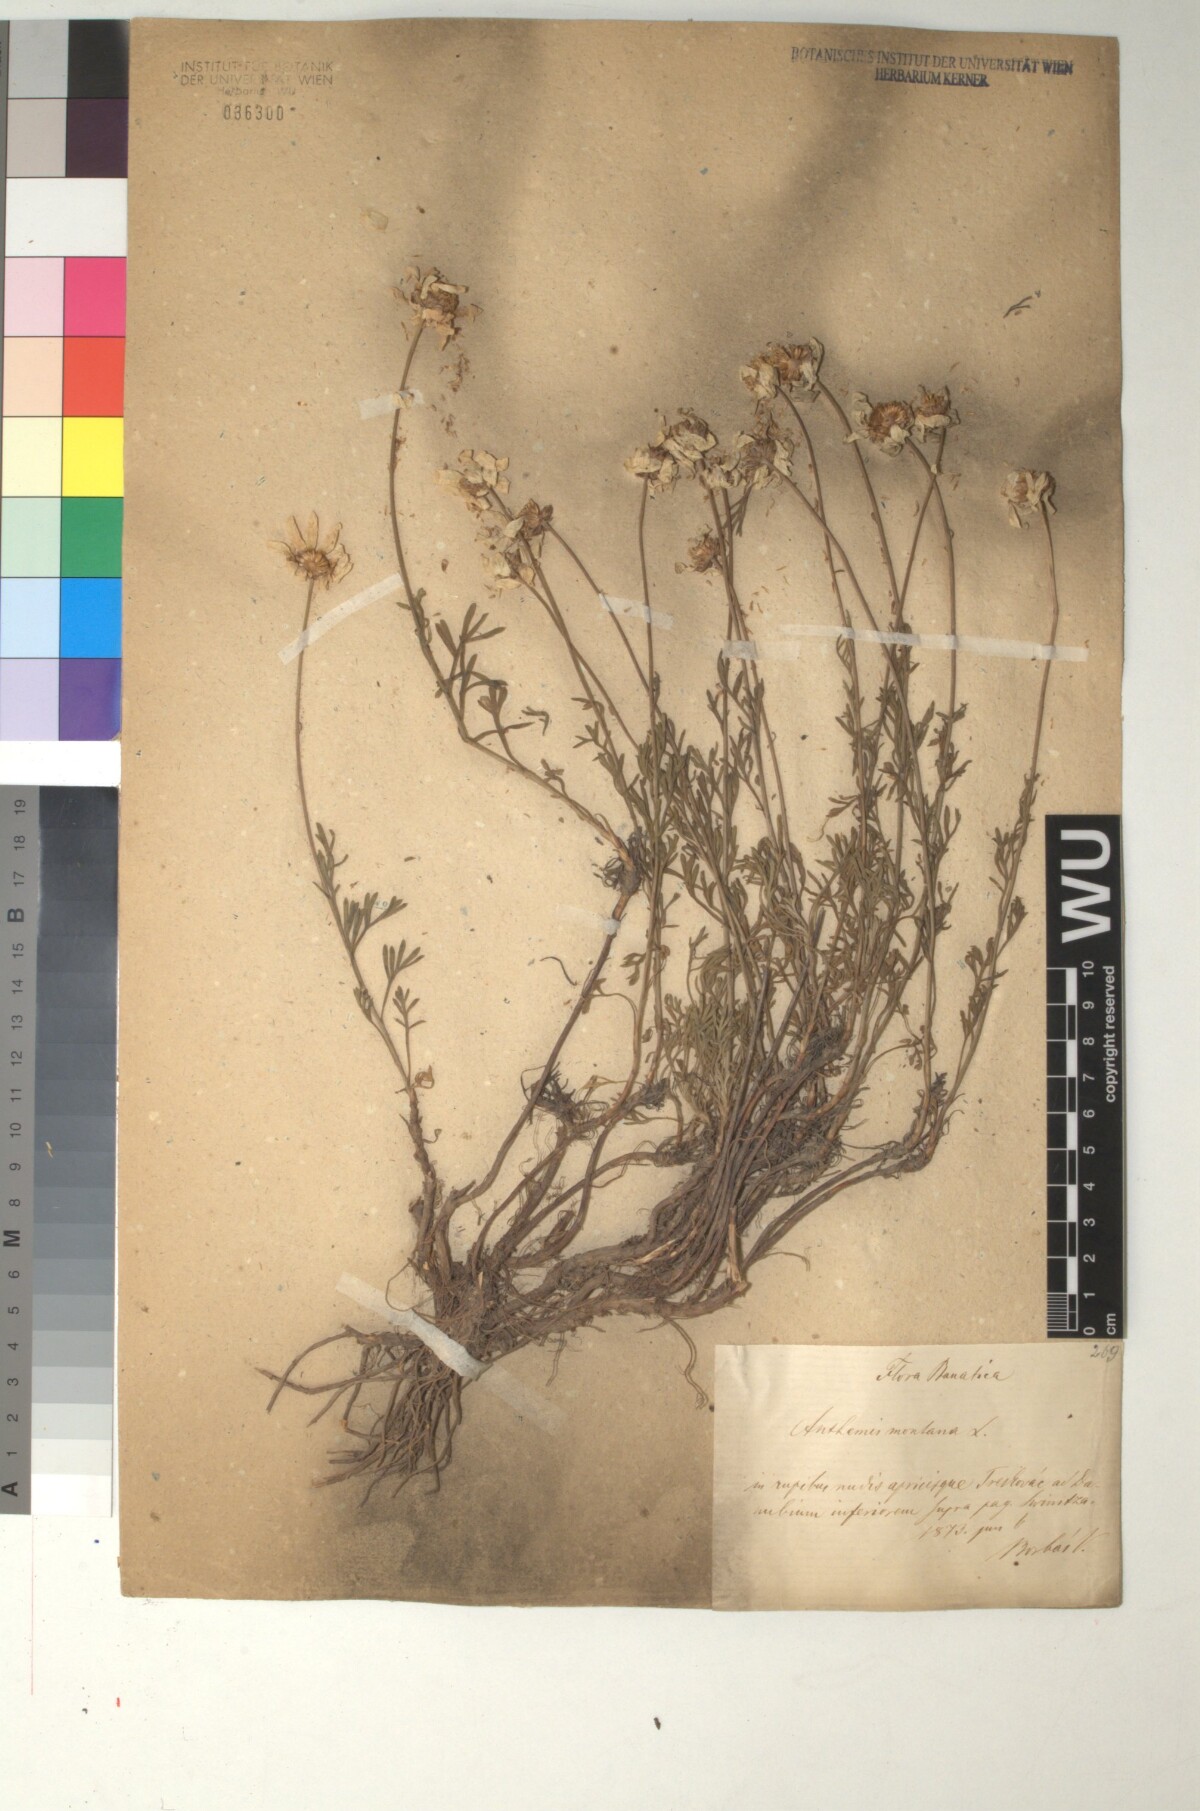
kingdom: Plantae
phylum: Tracheophyta
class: Magnoliopsida
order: Asterales
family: Asteraceae
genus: Anthemis
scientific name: Anthemis cretica
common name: Mountain dog-daisy
